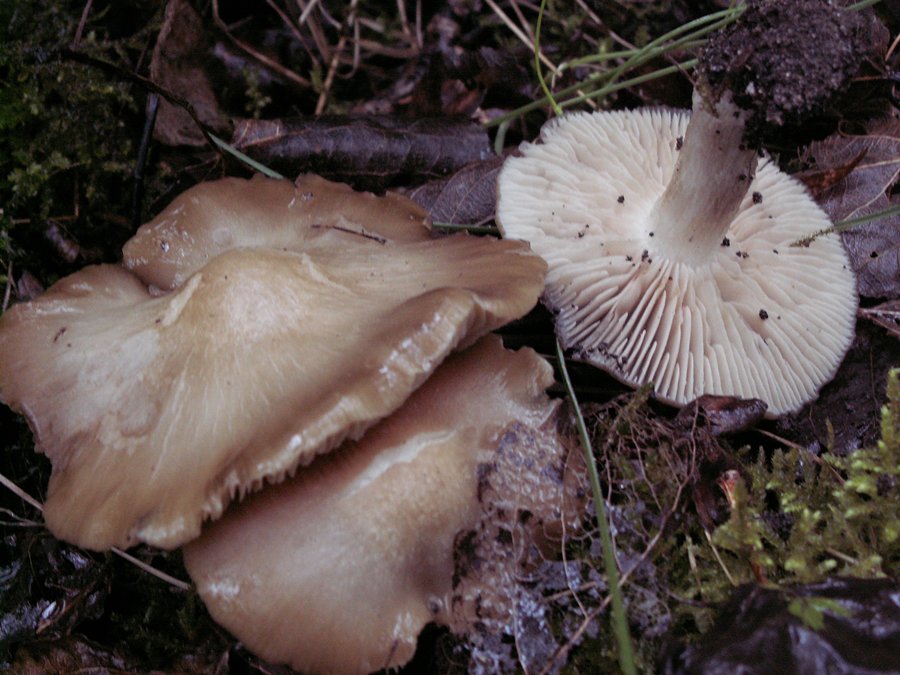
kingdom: Fungi
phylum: Basidiomycota
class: Agaricomycetes
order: Agaricales
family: Entolomataceae
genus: Entoloma
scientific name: Entoloma clypeatum
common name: flammet rødblad
